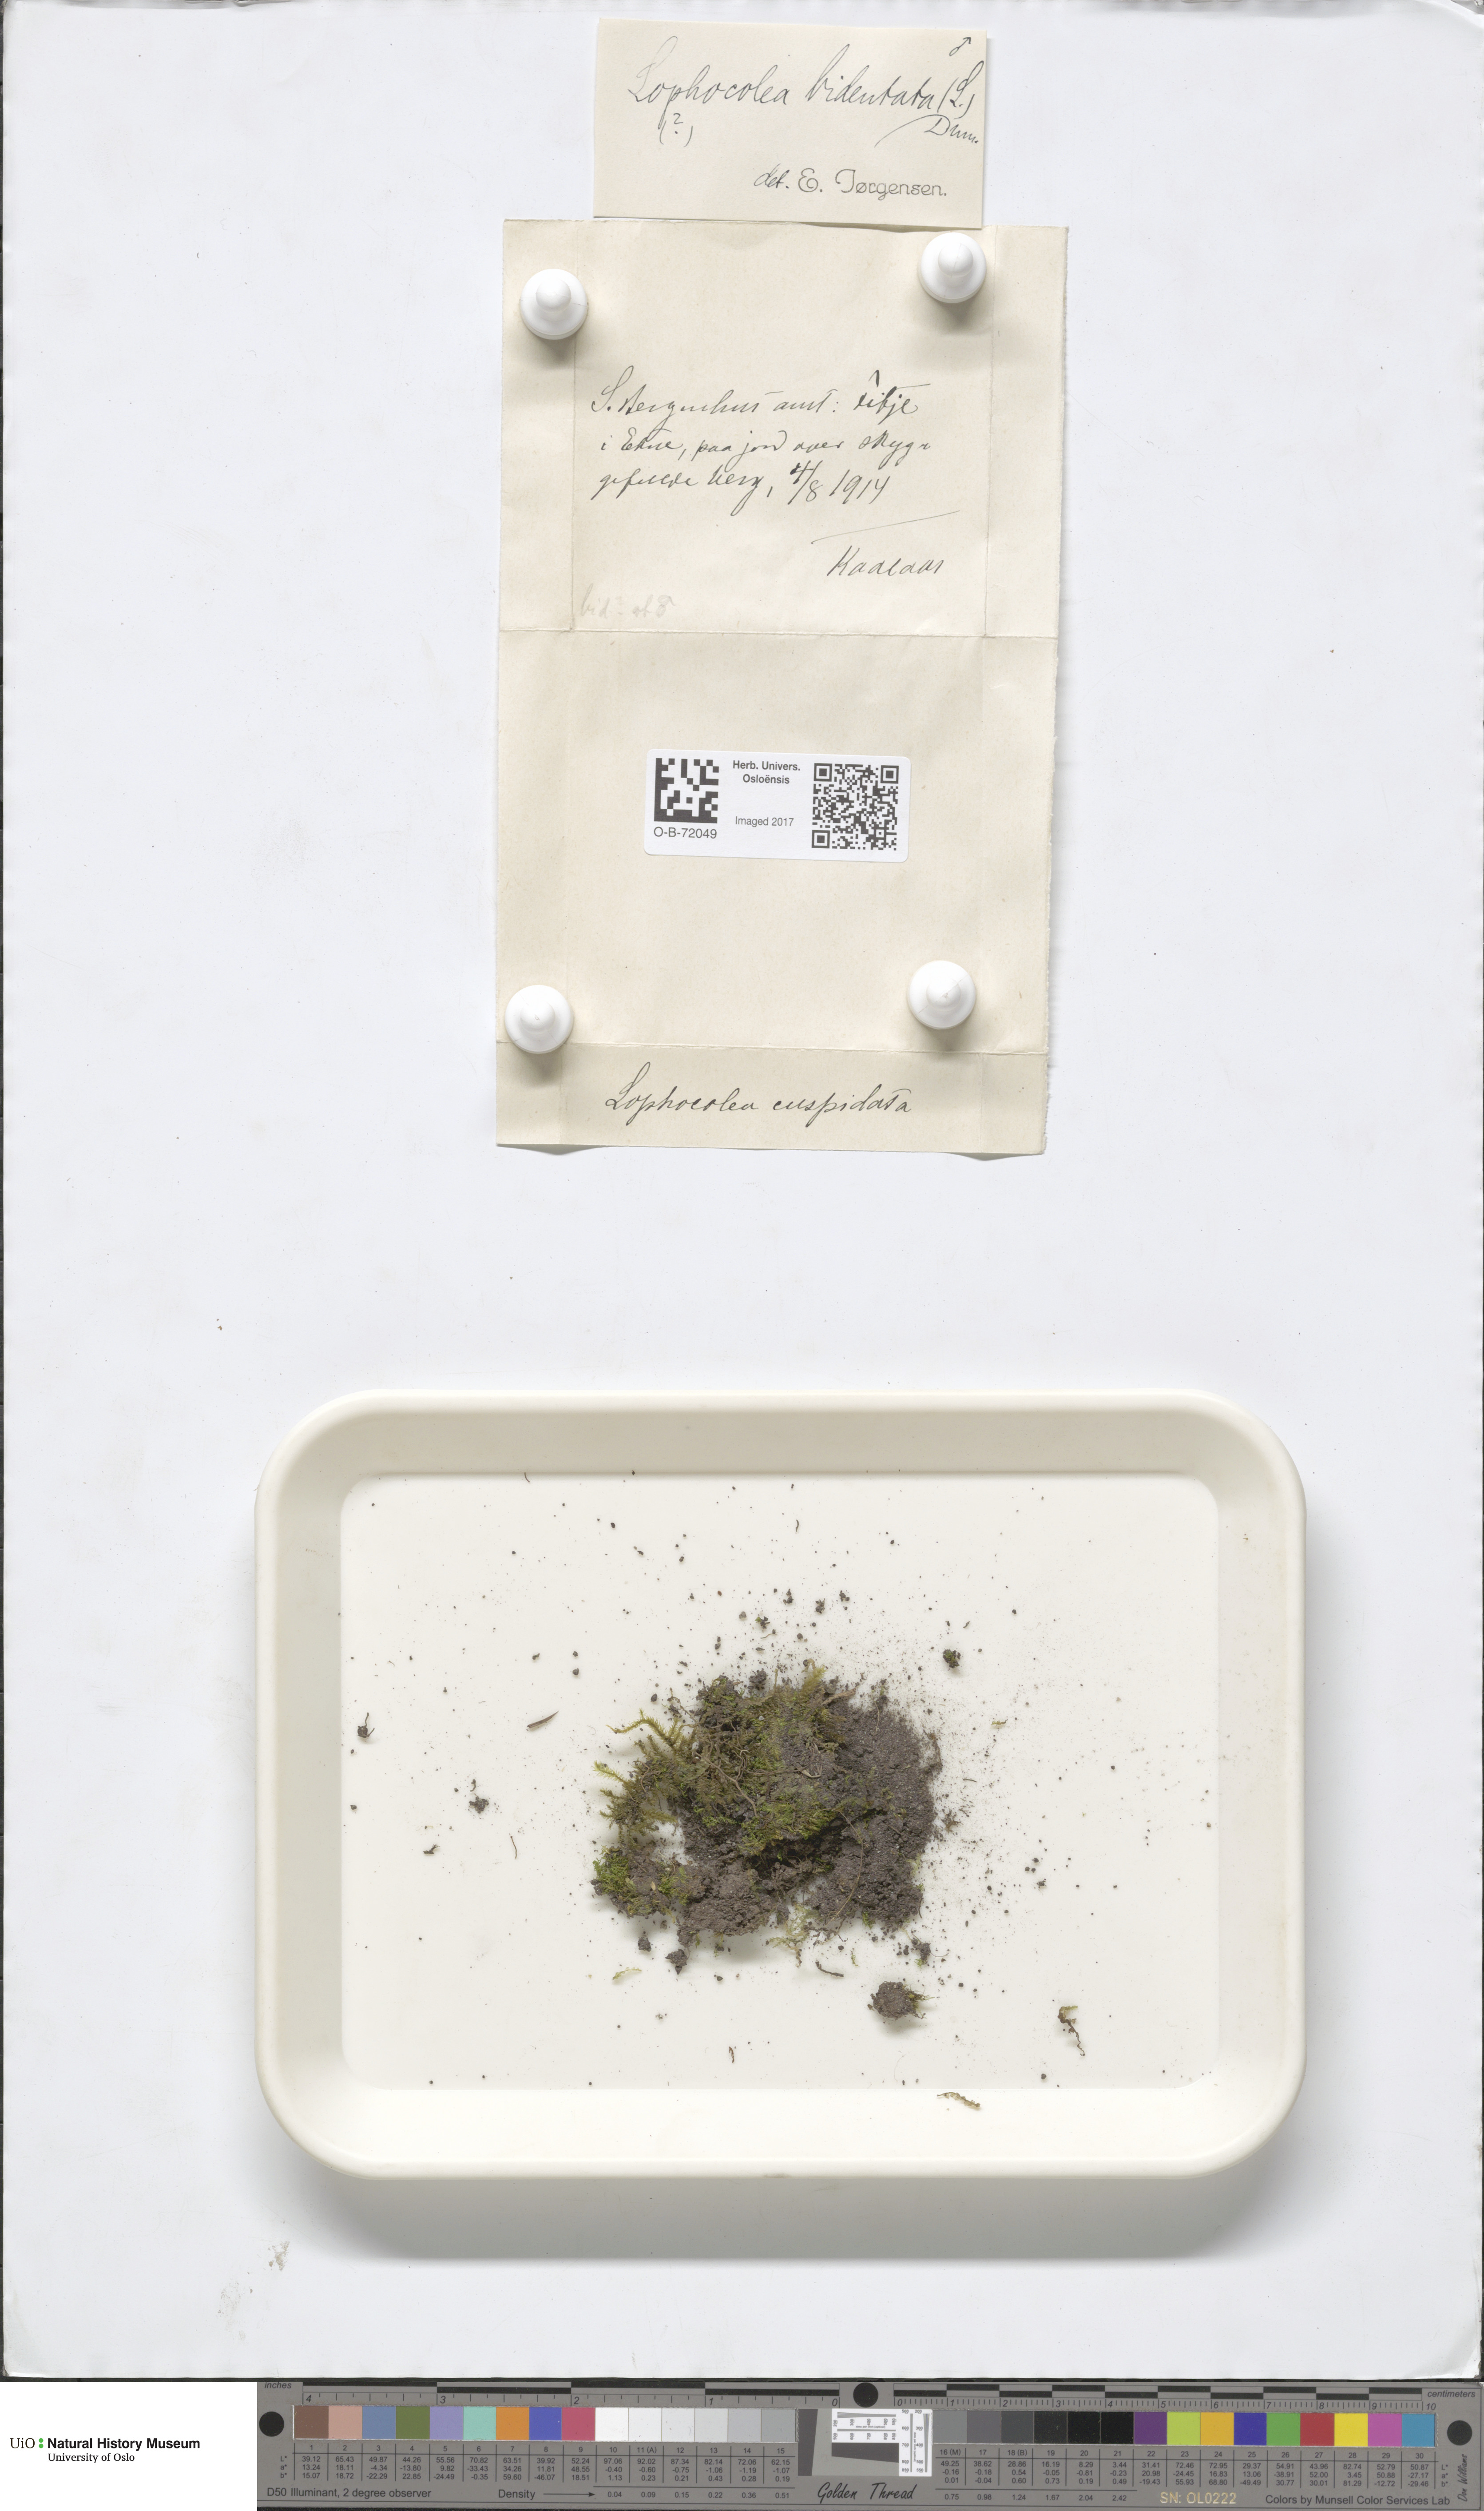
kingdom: Plantae
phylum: Marchantiophyta
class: Jungermanniopsida
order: Jungermanniales
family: Lophocoleaceae
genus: Lophocolea
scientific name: Lophocolea bidentata
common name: Bifid crestwort
